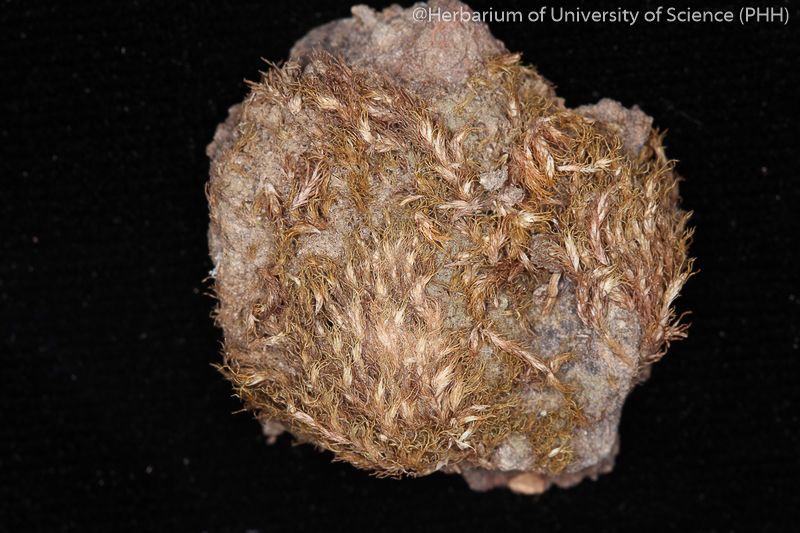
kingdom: Plantae
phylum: Bryophyta
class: Bryopsida
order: Dicranales
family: Calymperaceae
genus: Syrrhopodon
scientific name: Syrrhopodon albidus
